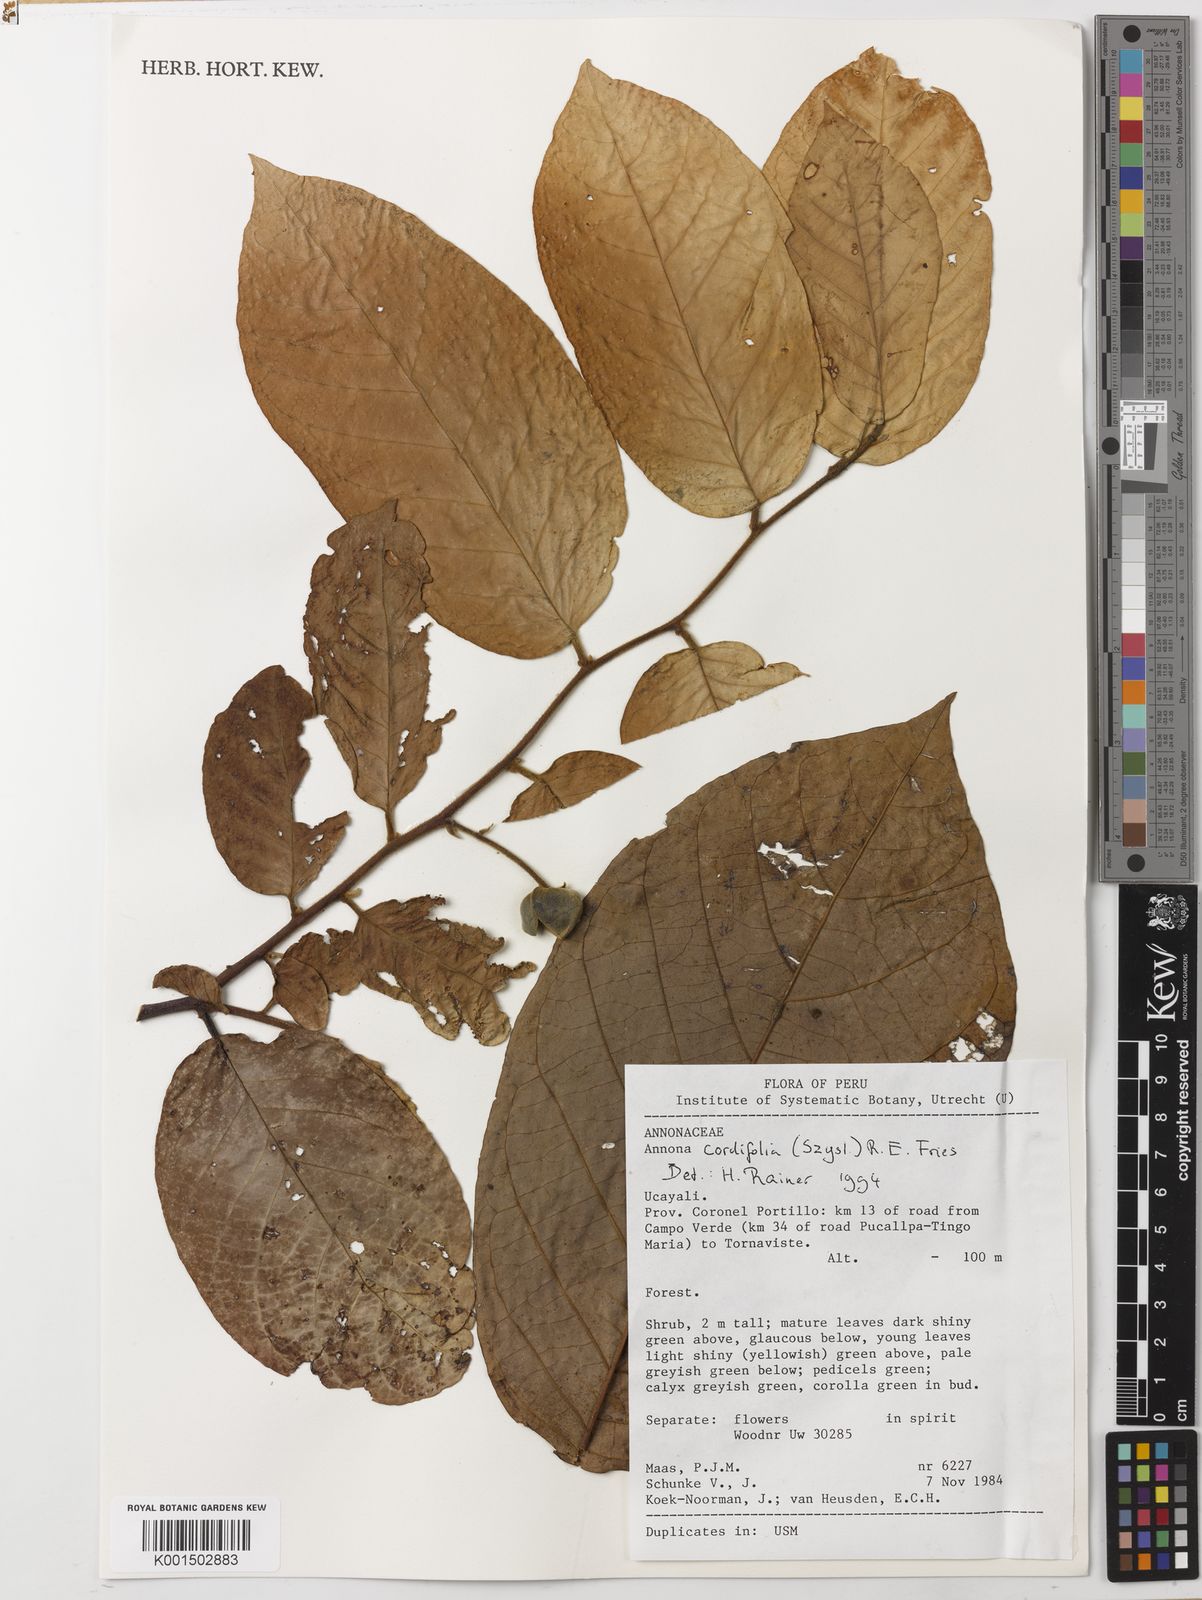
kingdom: Plantae
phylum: Tracheophyta
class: Magnoliopsida
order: Magnoliales
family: Annonaceae
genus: Annona
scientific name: Annona cordifolia
